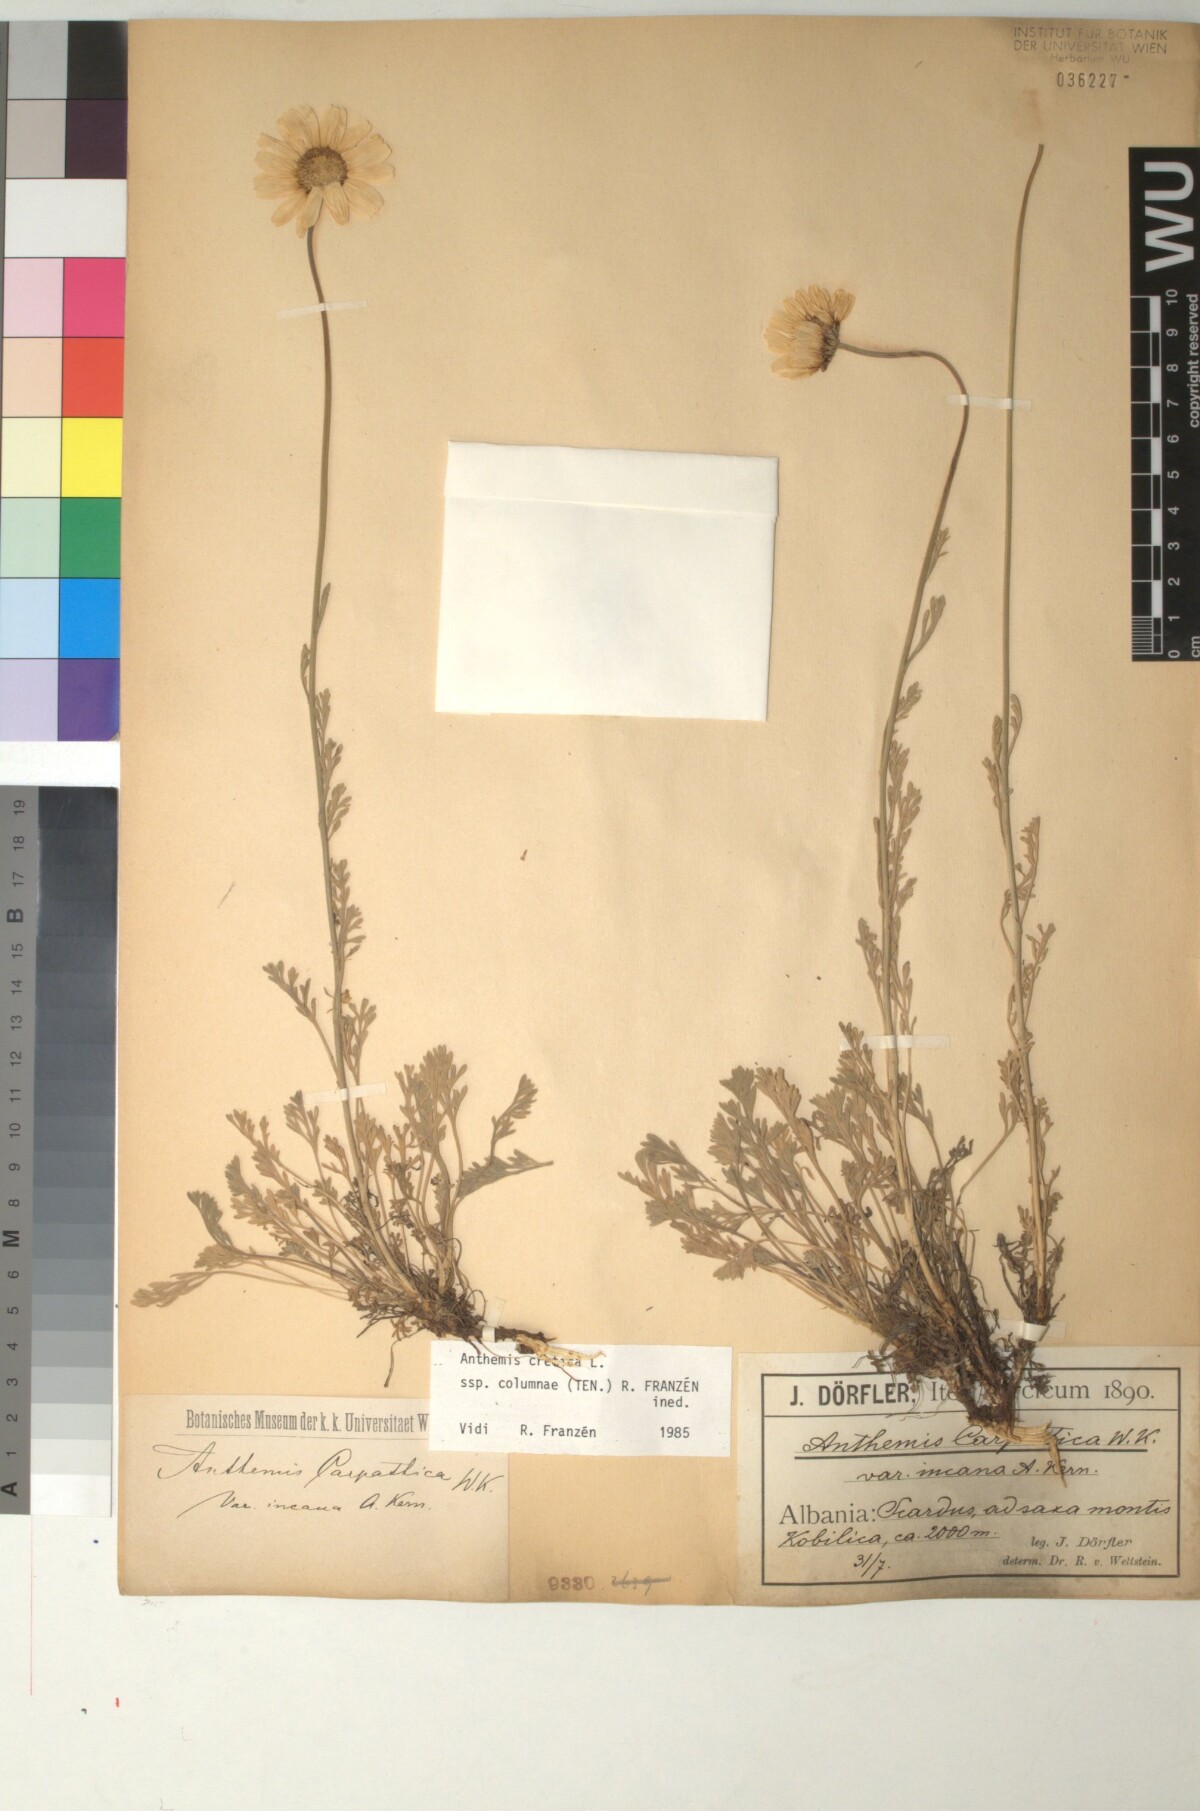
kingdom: Plantae
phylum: Tracheophyta
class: Magnoliopsida
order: Asterales
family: Asteraceae
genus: Anthemis
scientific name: Anthemis cretica
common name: Mountain dog-daisy
